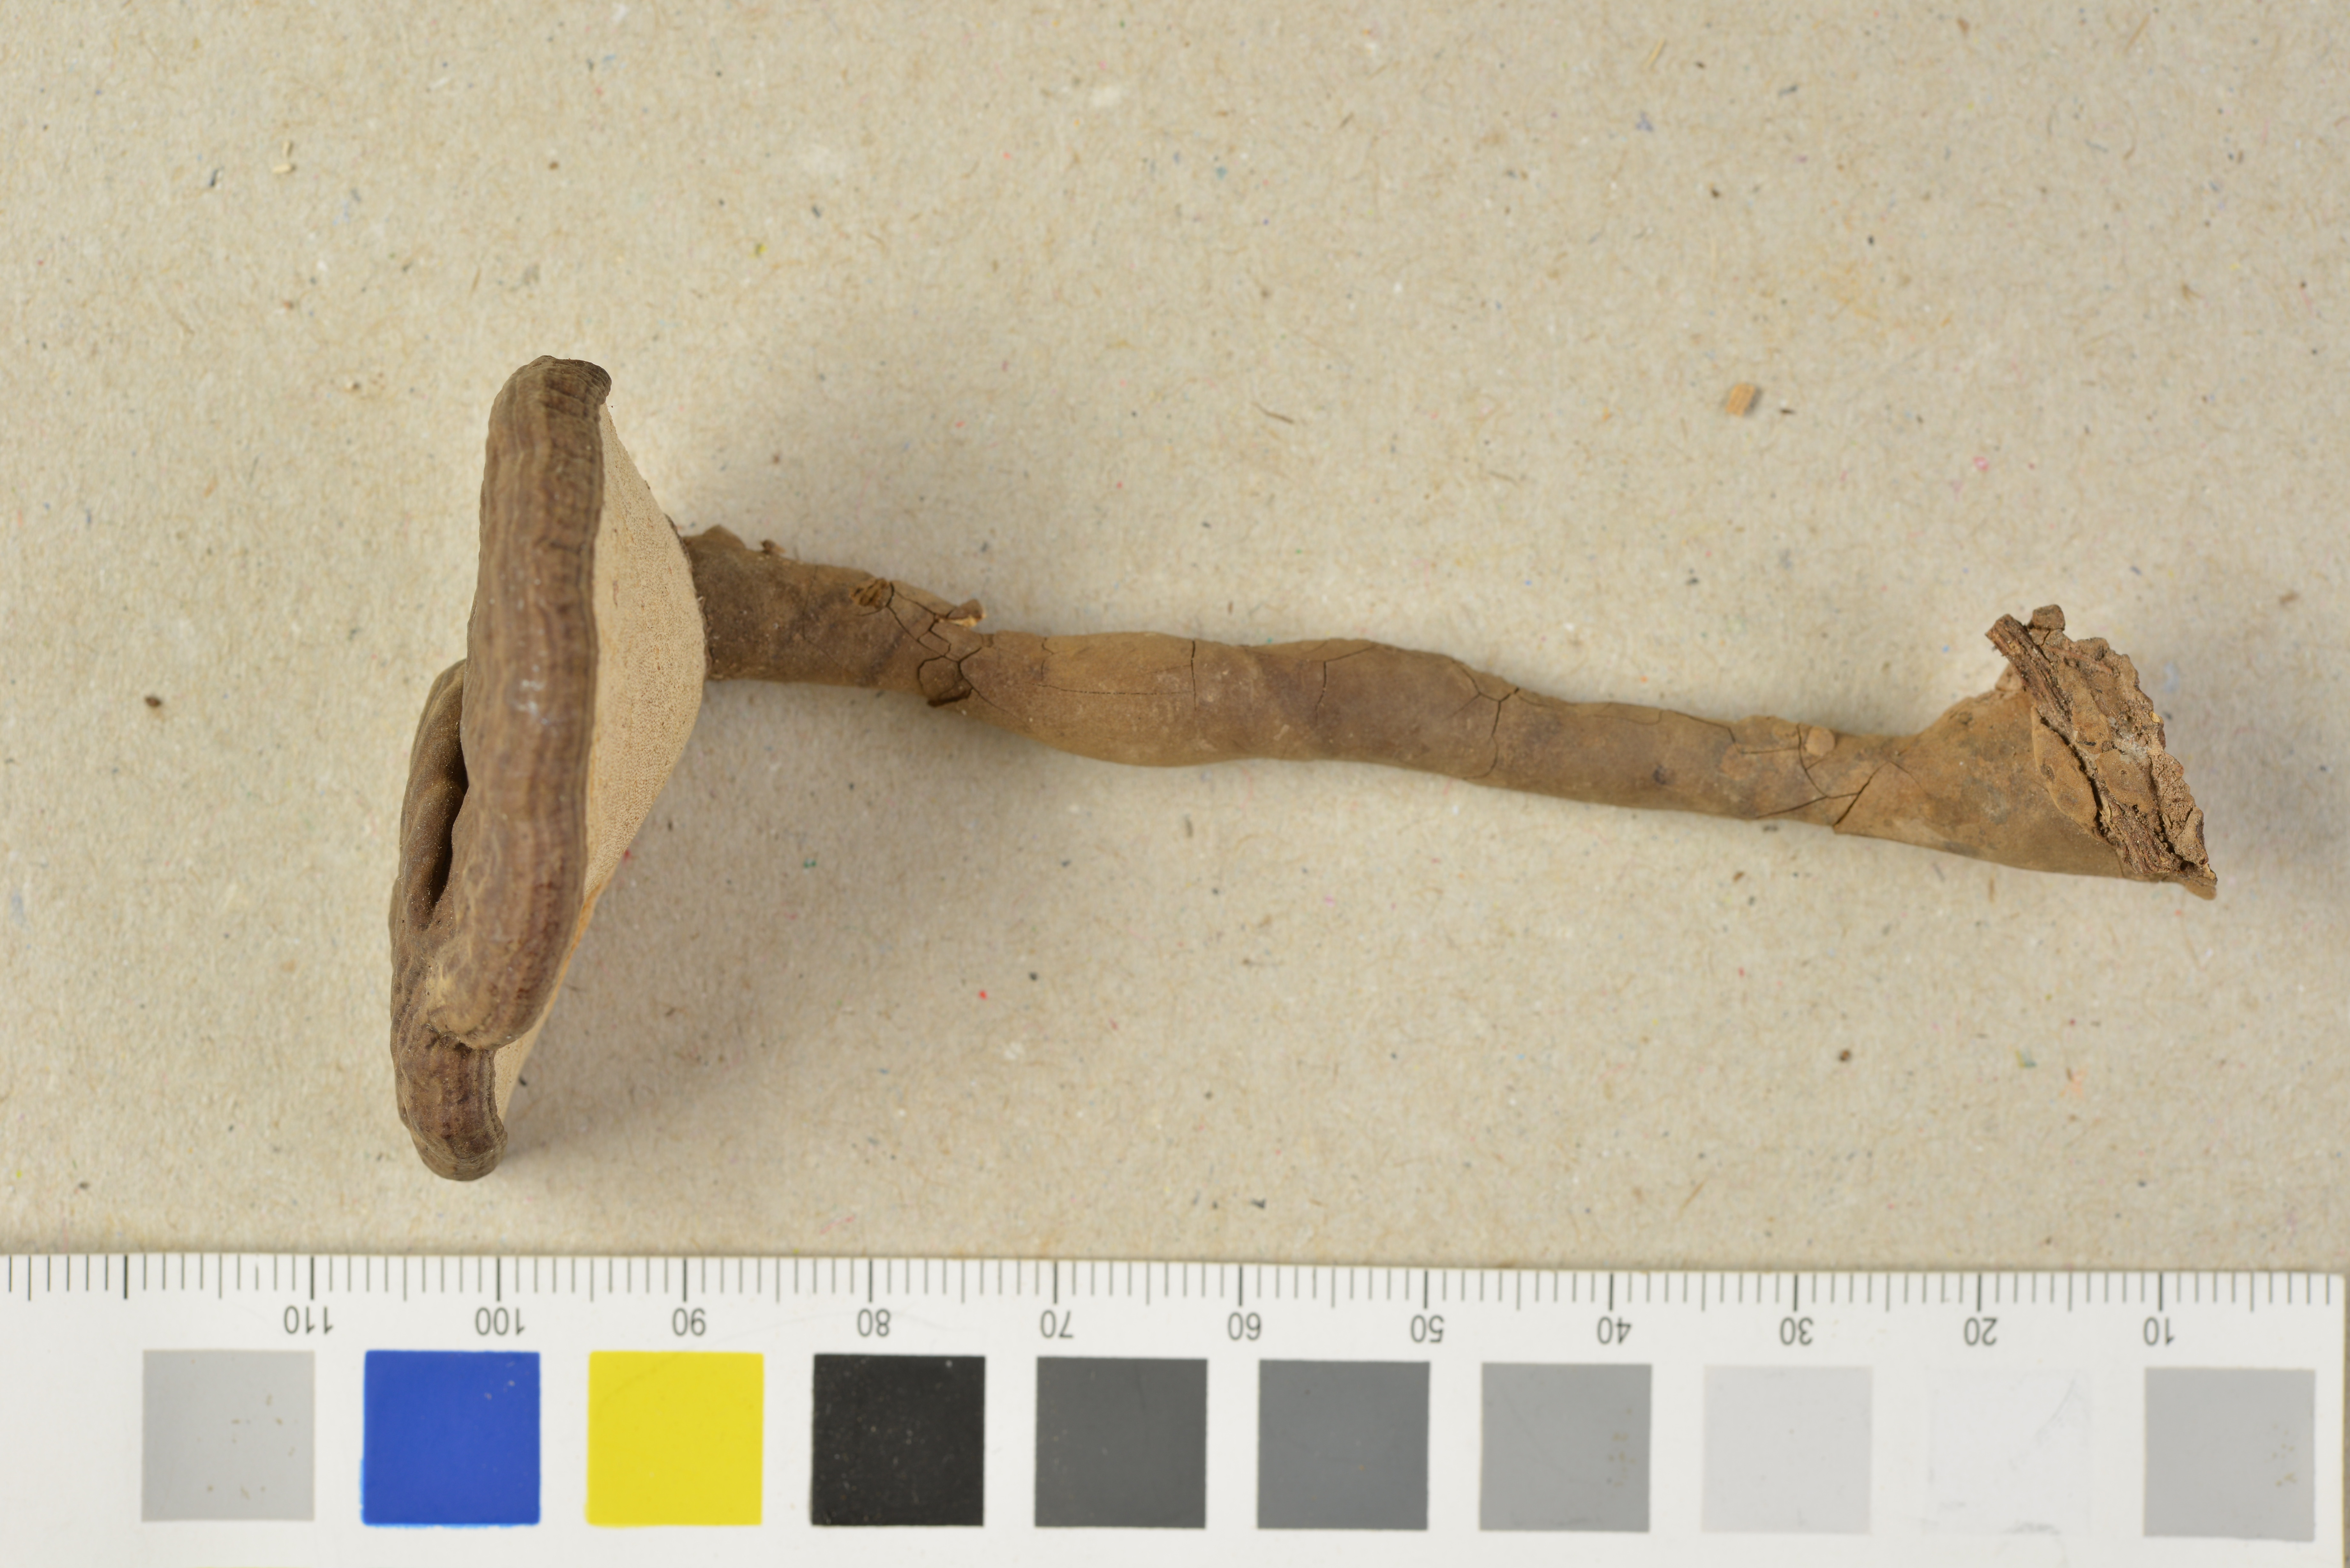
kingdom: Fungi
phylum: Basidiomycota
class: Agaricomycetes
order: Polyporales
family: Polyporaceae
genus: Amauroderma
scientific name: Amauroderma deviatum
